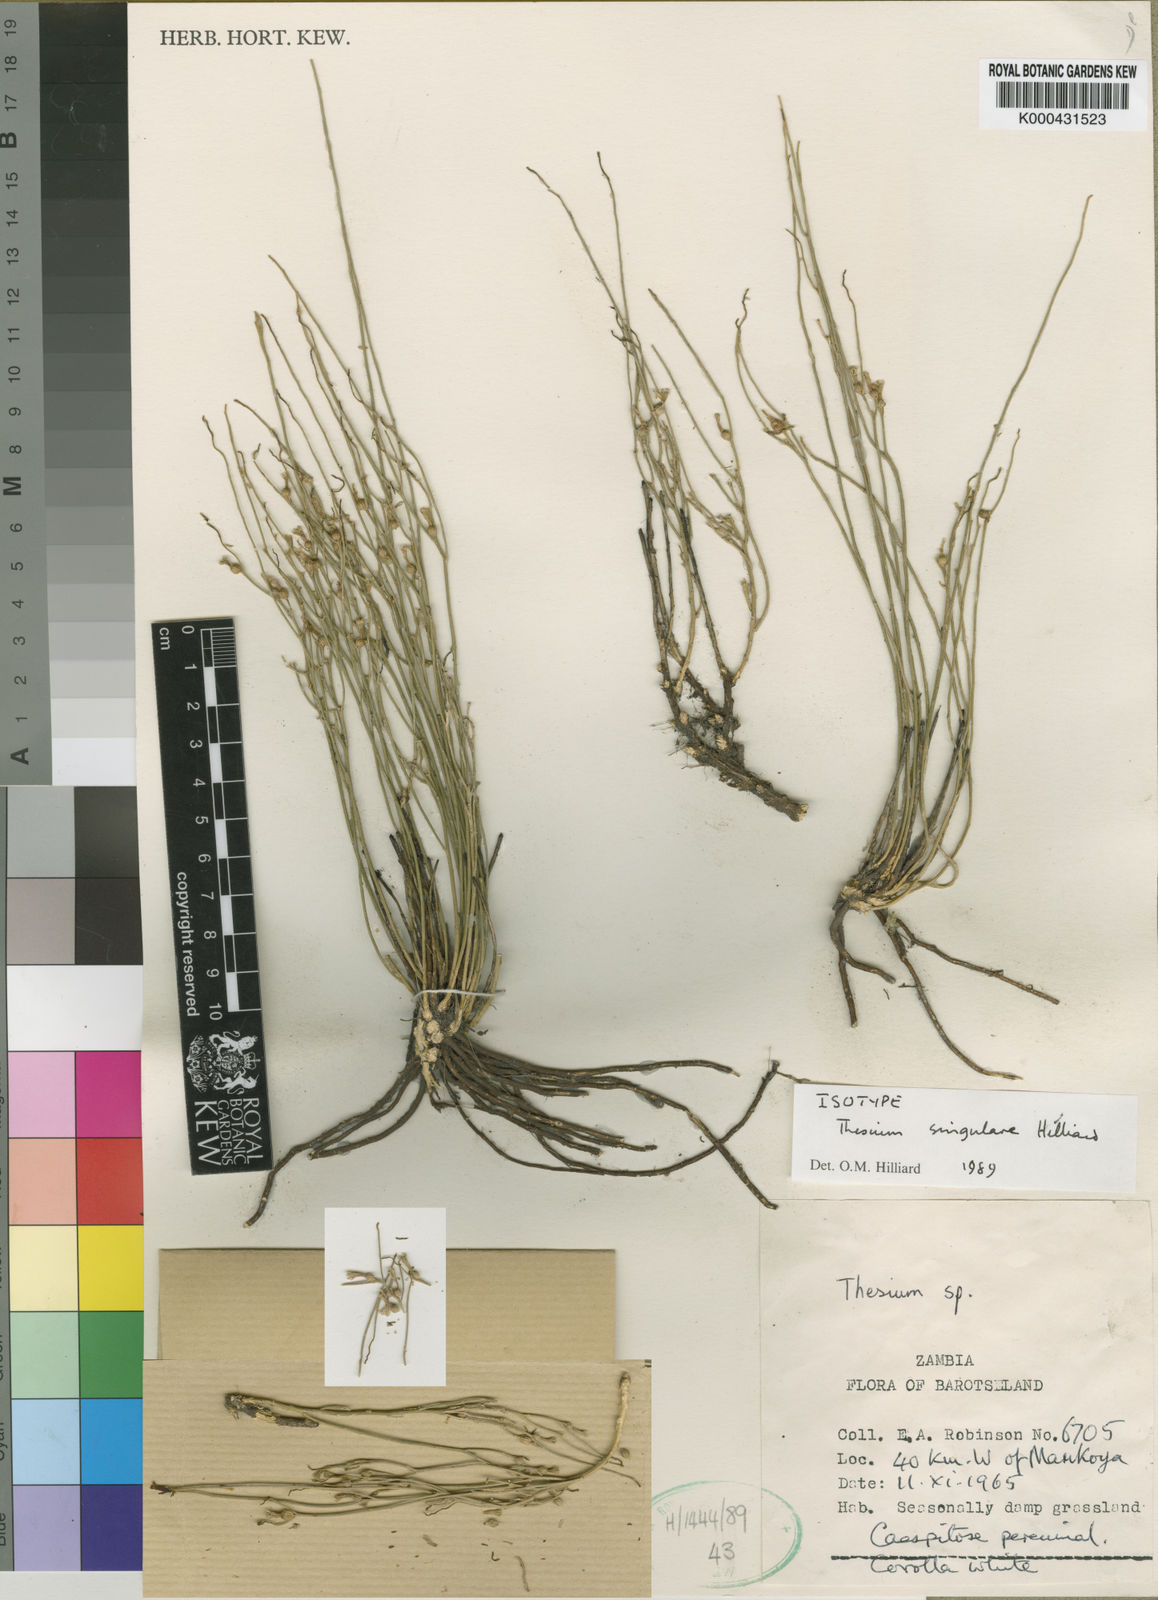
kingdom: Plantae
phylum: Tracheophyta
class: Magnoliopsida
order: Santalales
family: Thesiaceae
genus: Thesium
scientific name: Thesium singulare
